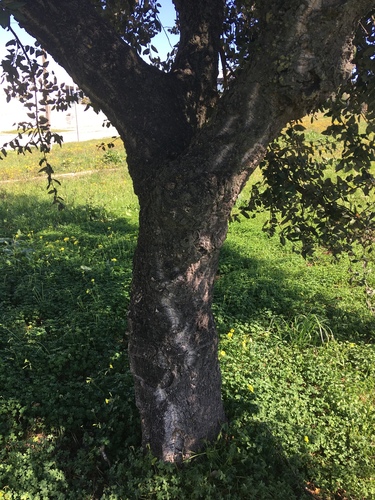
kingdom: Plantae
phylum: Tracheophyta
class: Magnoliopsida
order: Fagales
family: Fagaceae
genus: Quercus
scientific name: Quercus suber
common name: Cork oak
